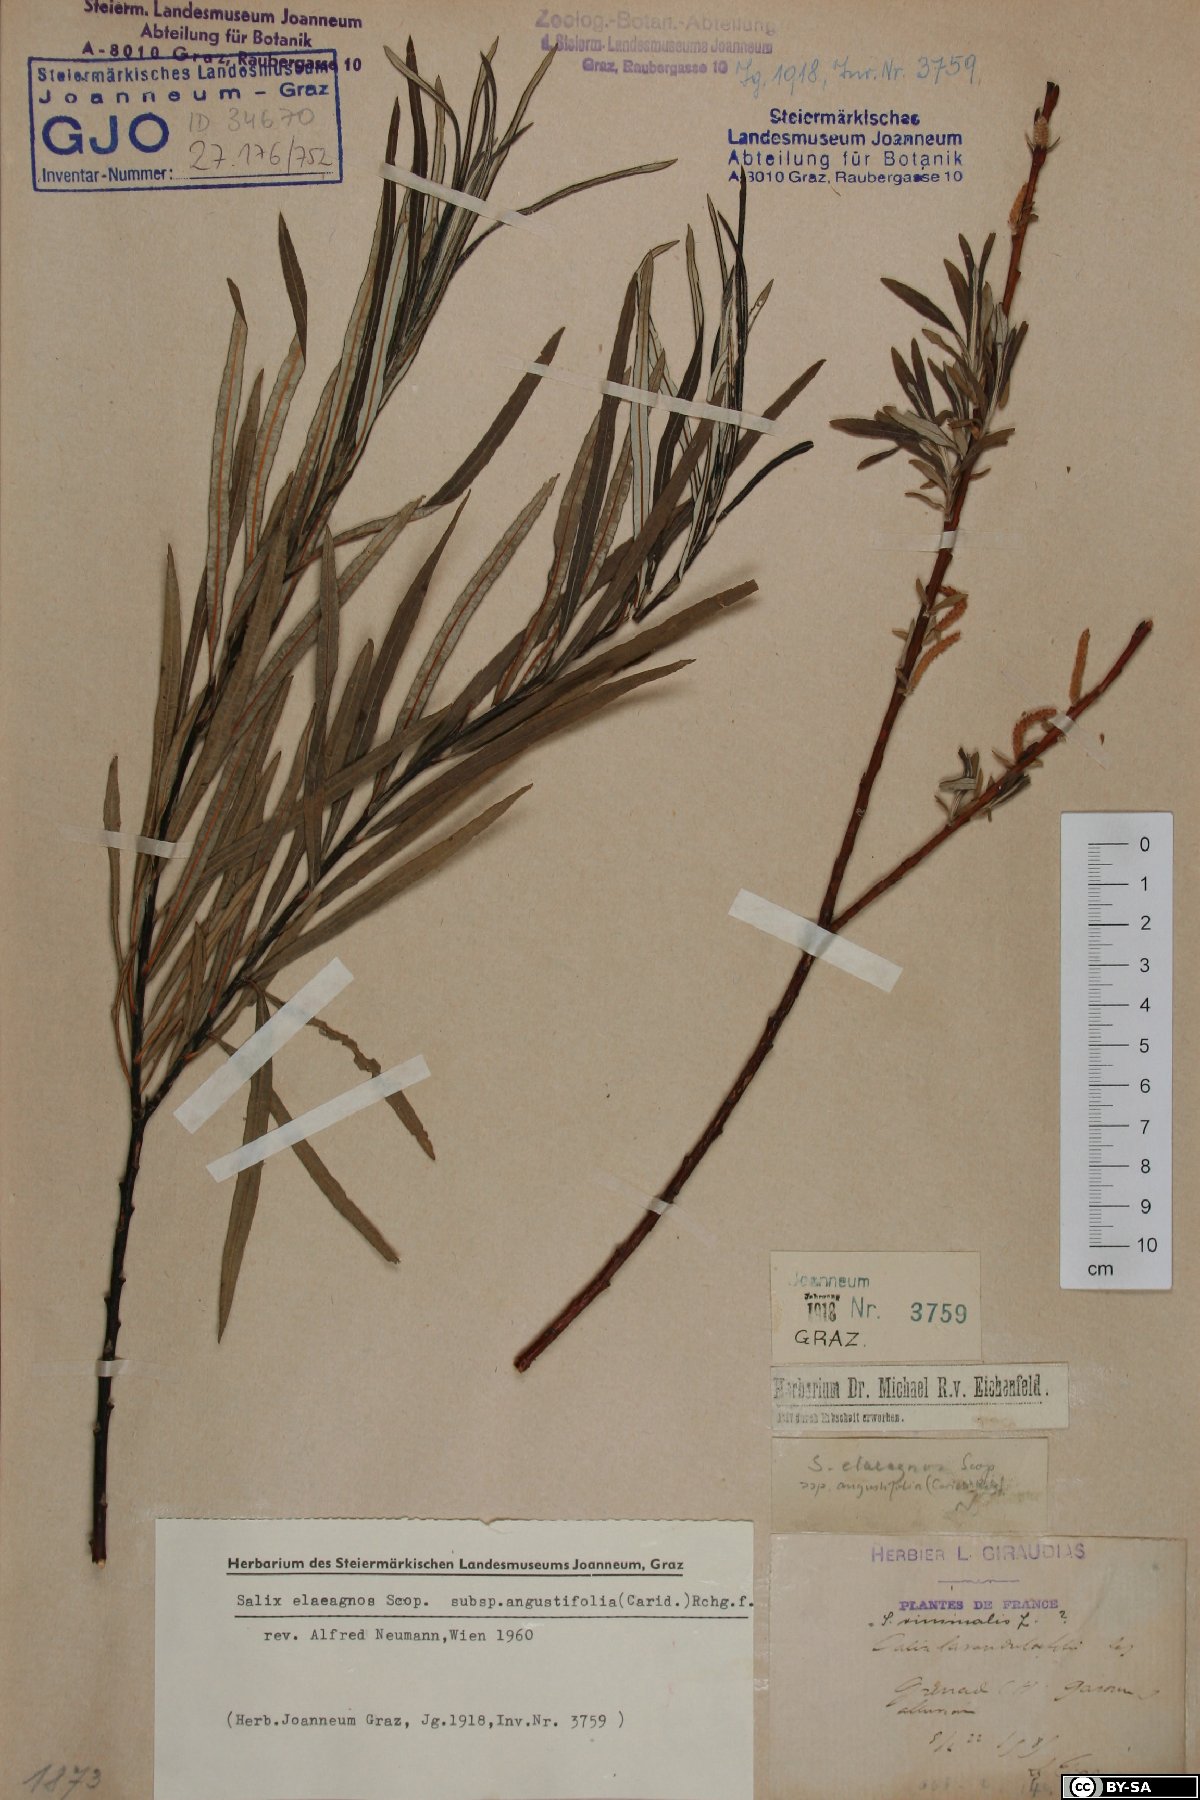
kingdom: Plantae
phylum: Tracheophyta
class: Magnoliopsida
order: Malpighiales
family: Salicaceae
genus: Salix
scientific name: Salix eleagnos
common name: Elaeagnus willow
